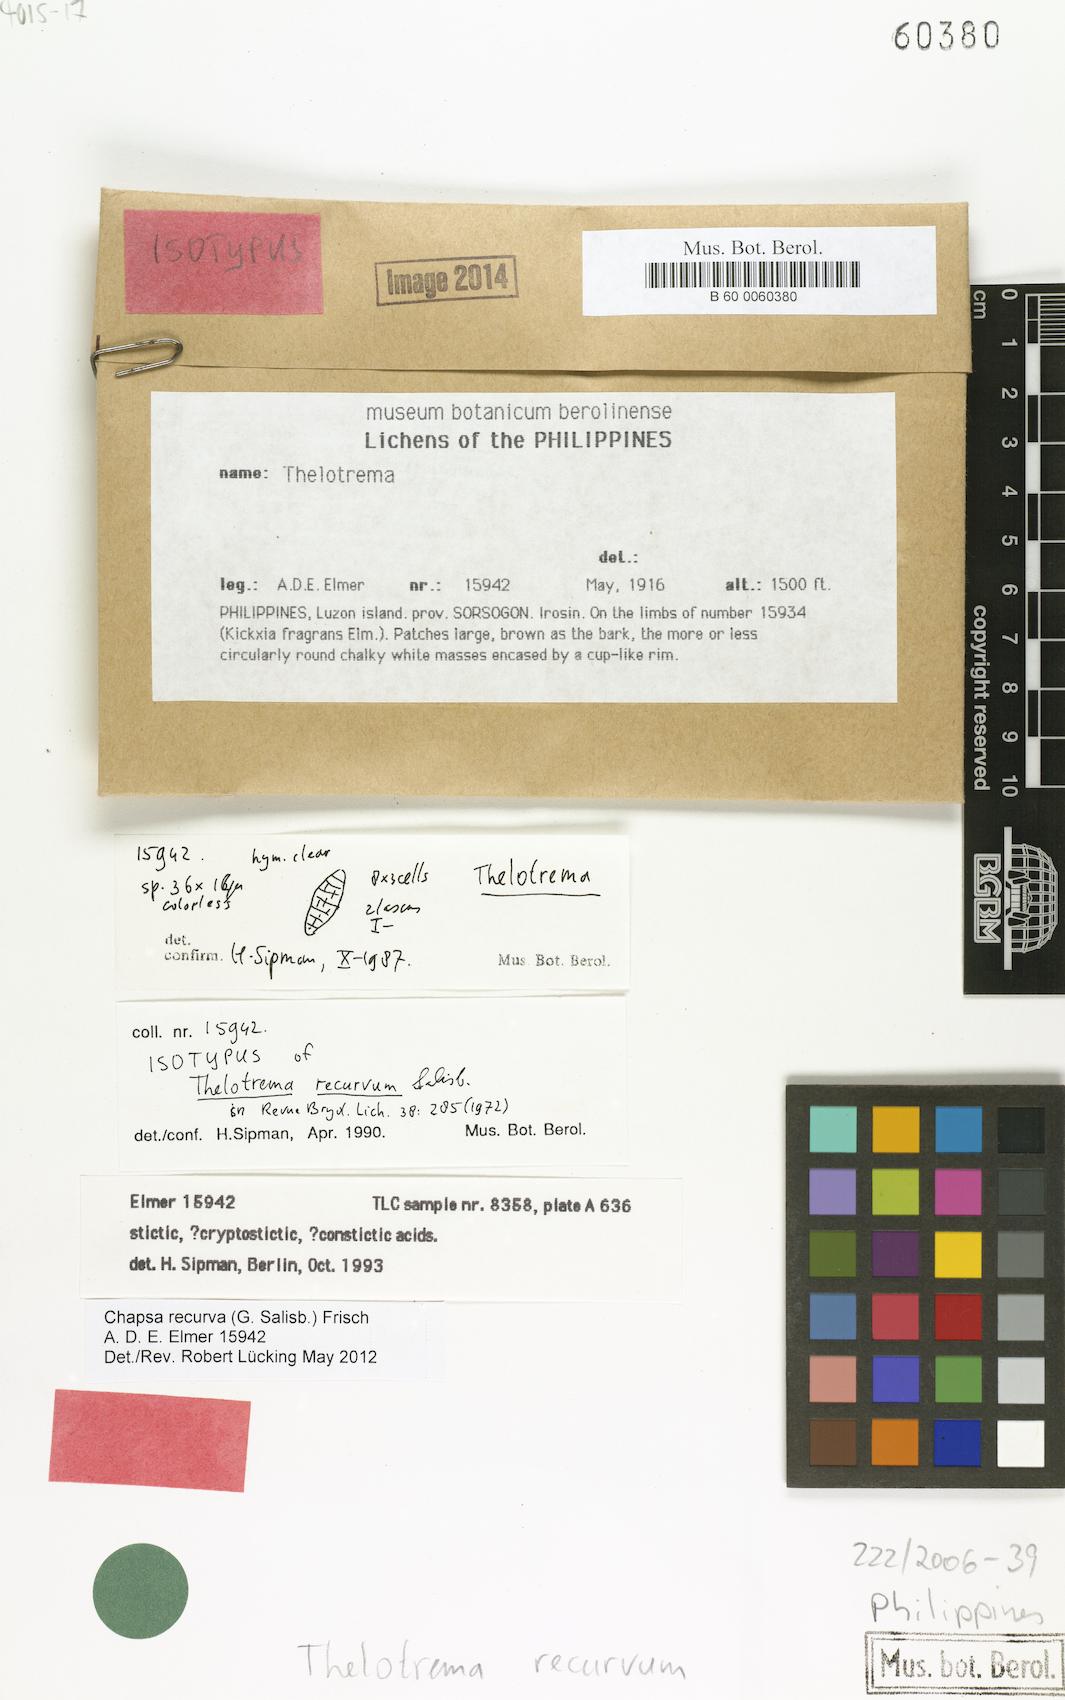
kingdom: Fungi
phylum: Ascomycota
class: Lecanoromycetes
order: Ostropales
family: Graphidaceae
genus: Astrochapsa
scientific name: Astrochapsa recurva
